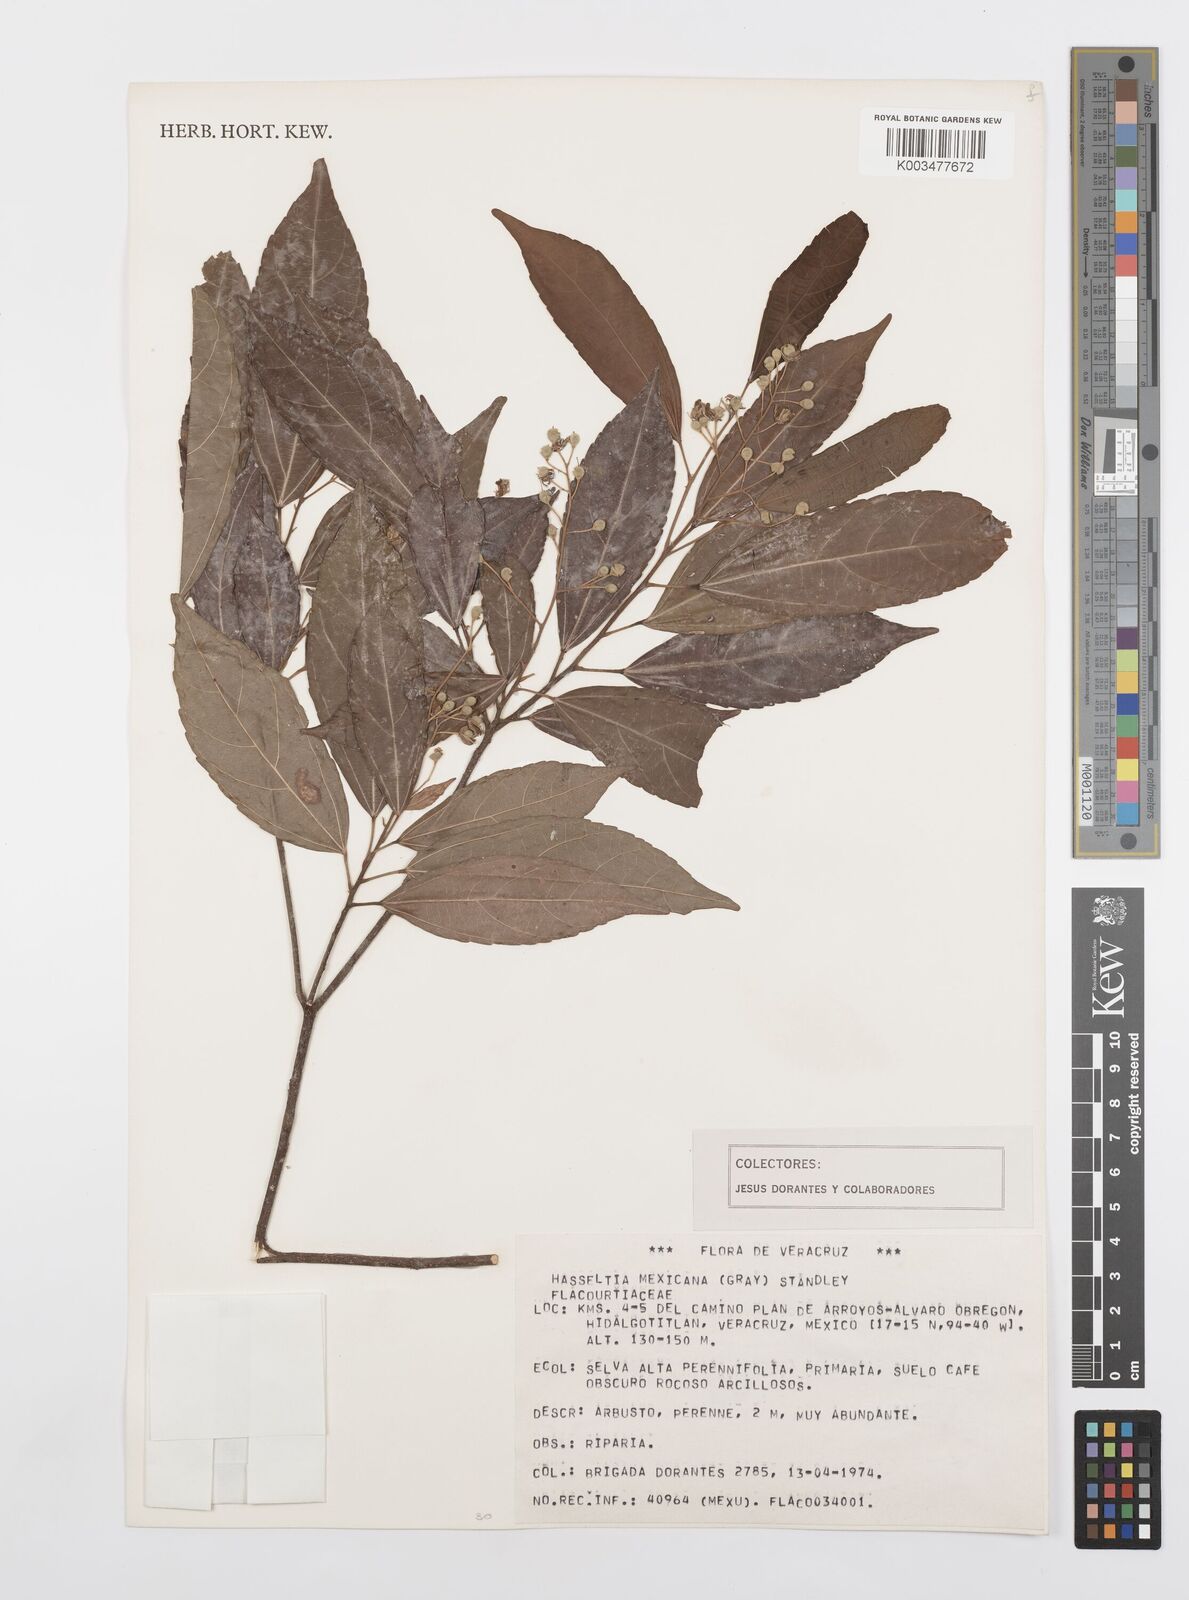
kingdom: Plantae
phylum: Tracheophyta
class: Magnoliopsida
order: Malpighiales
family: Salicaceae
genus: Pleuranthodendron
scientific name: Pleuranthodendron lindenii
